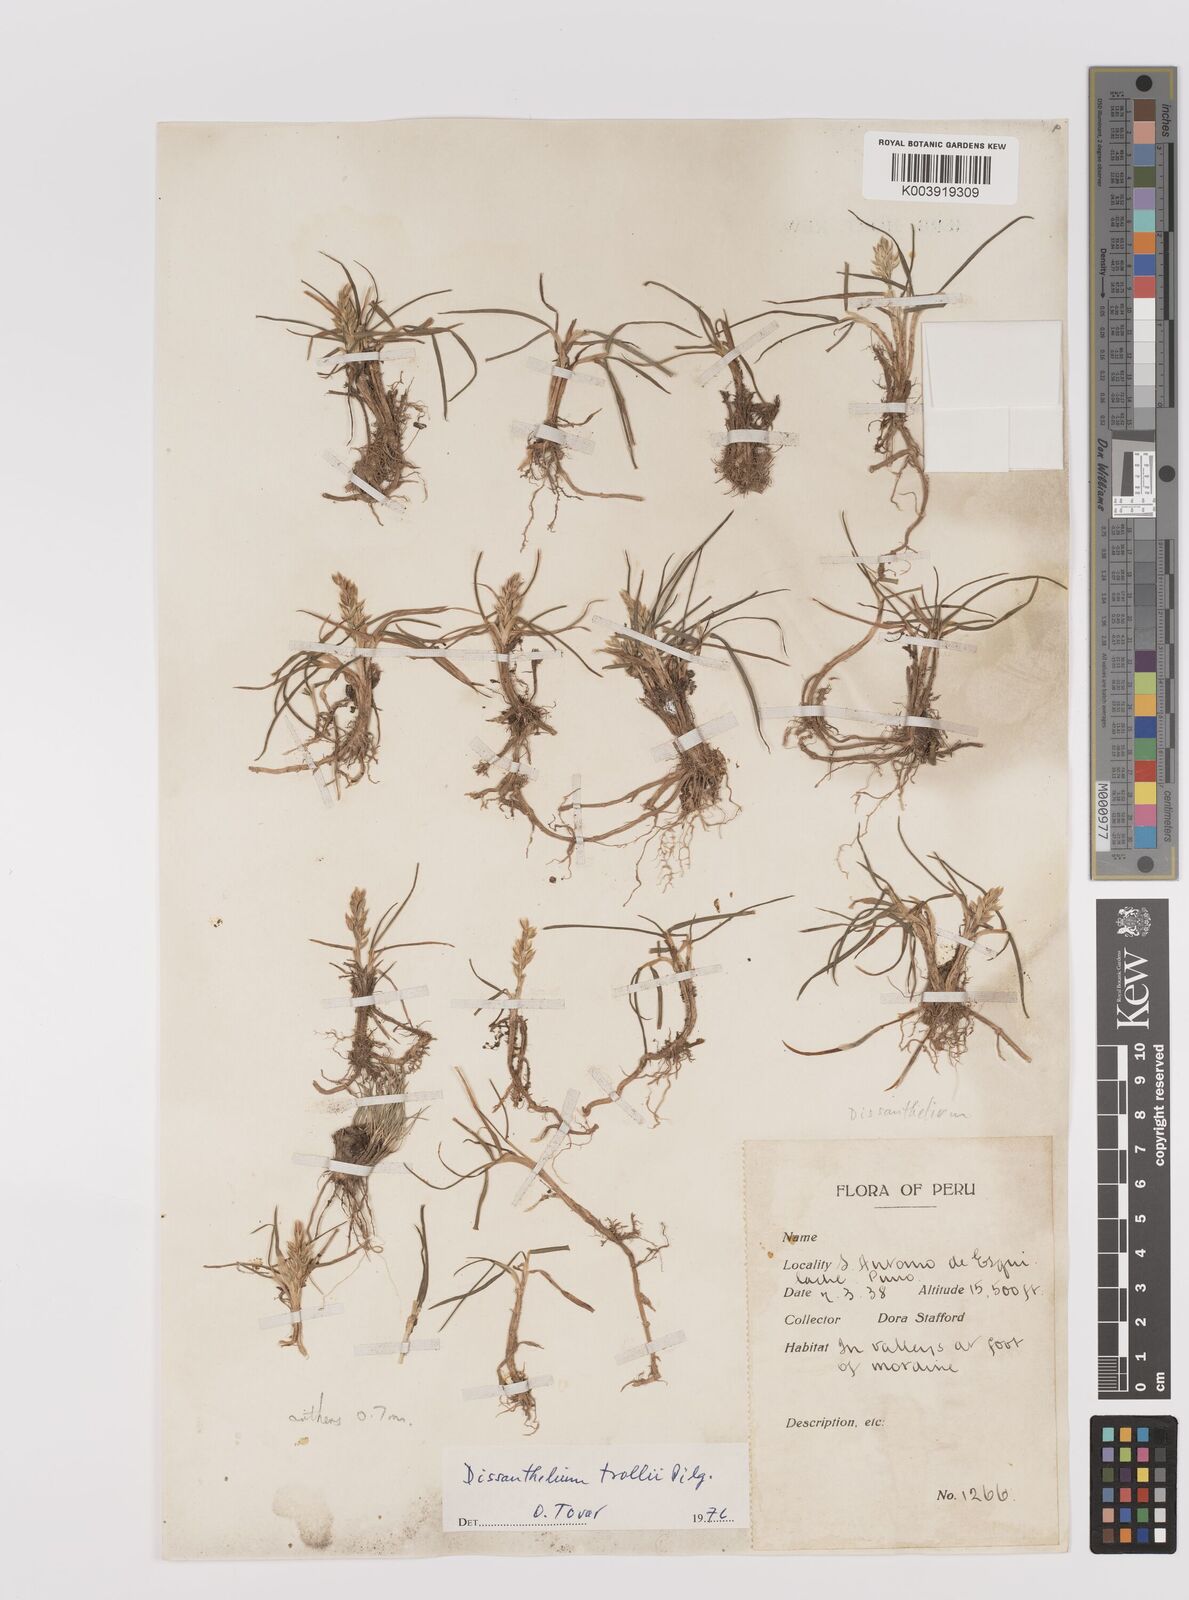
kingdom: Plantae
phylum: Tracheophyta
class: Liliopsida
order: Poales
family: Poaceae
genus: Poa
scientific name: Poa deminuta
